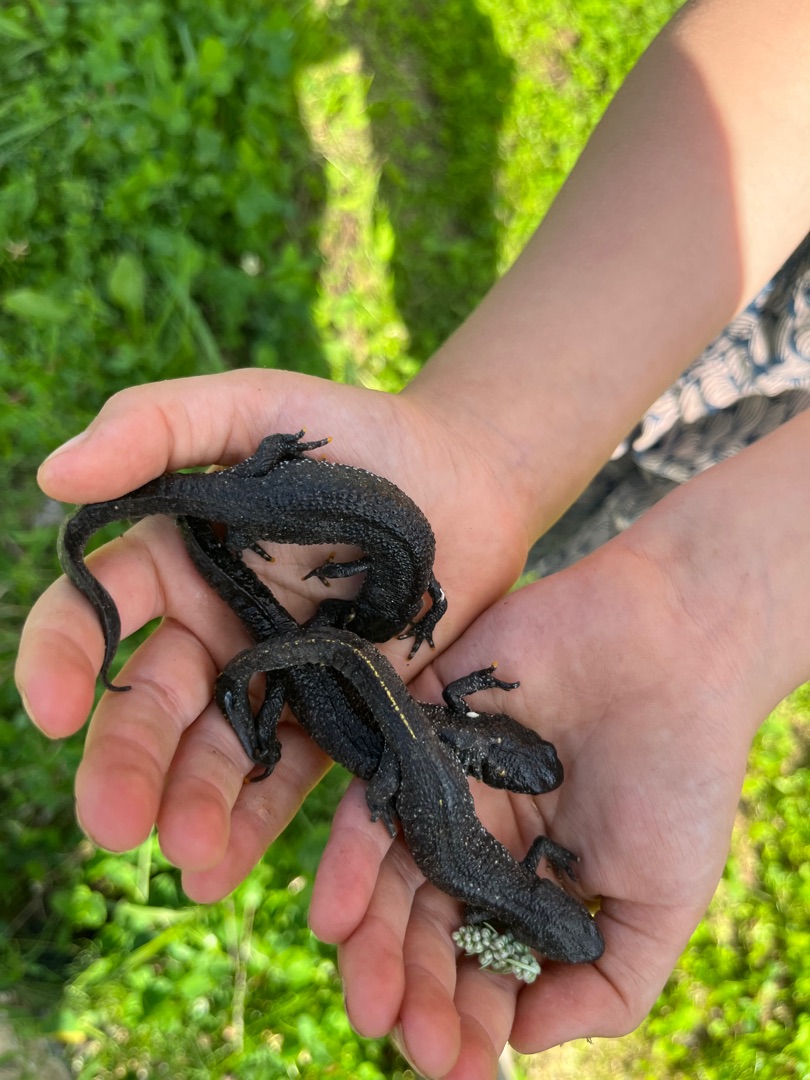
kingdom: Animalia
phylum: Chordata
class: Amphibia
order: Caudata
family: Salamandridae
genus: Triturus
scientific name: Triturus cristatus
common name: Stor vandsalamander
